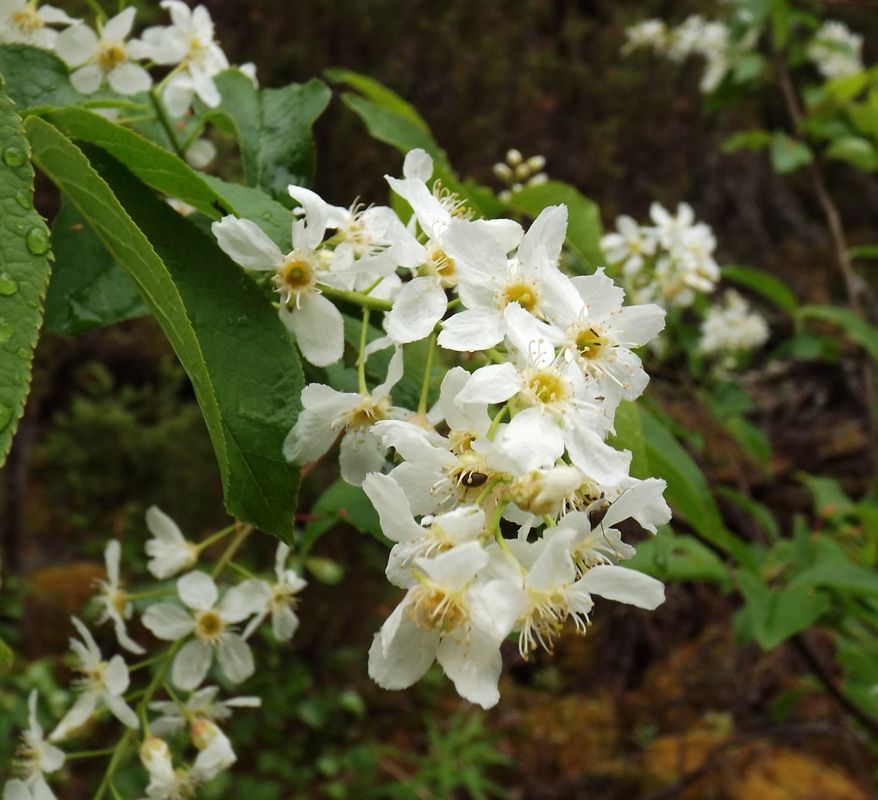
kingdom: Plantae
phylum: Tracheophyta
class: Magnoliopsida
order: Rosales
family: Rosaceae
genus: Prunus
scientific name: Prunus padus
